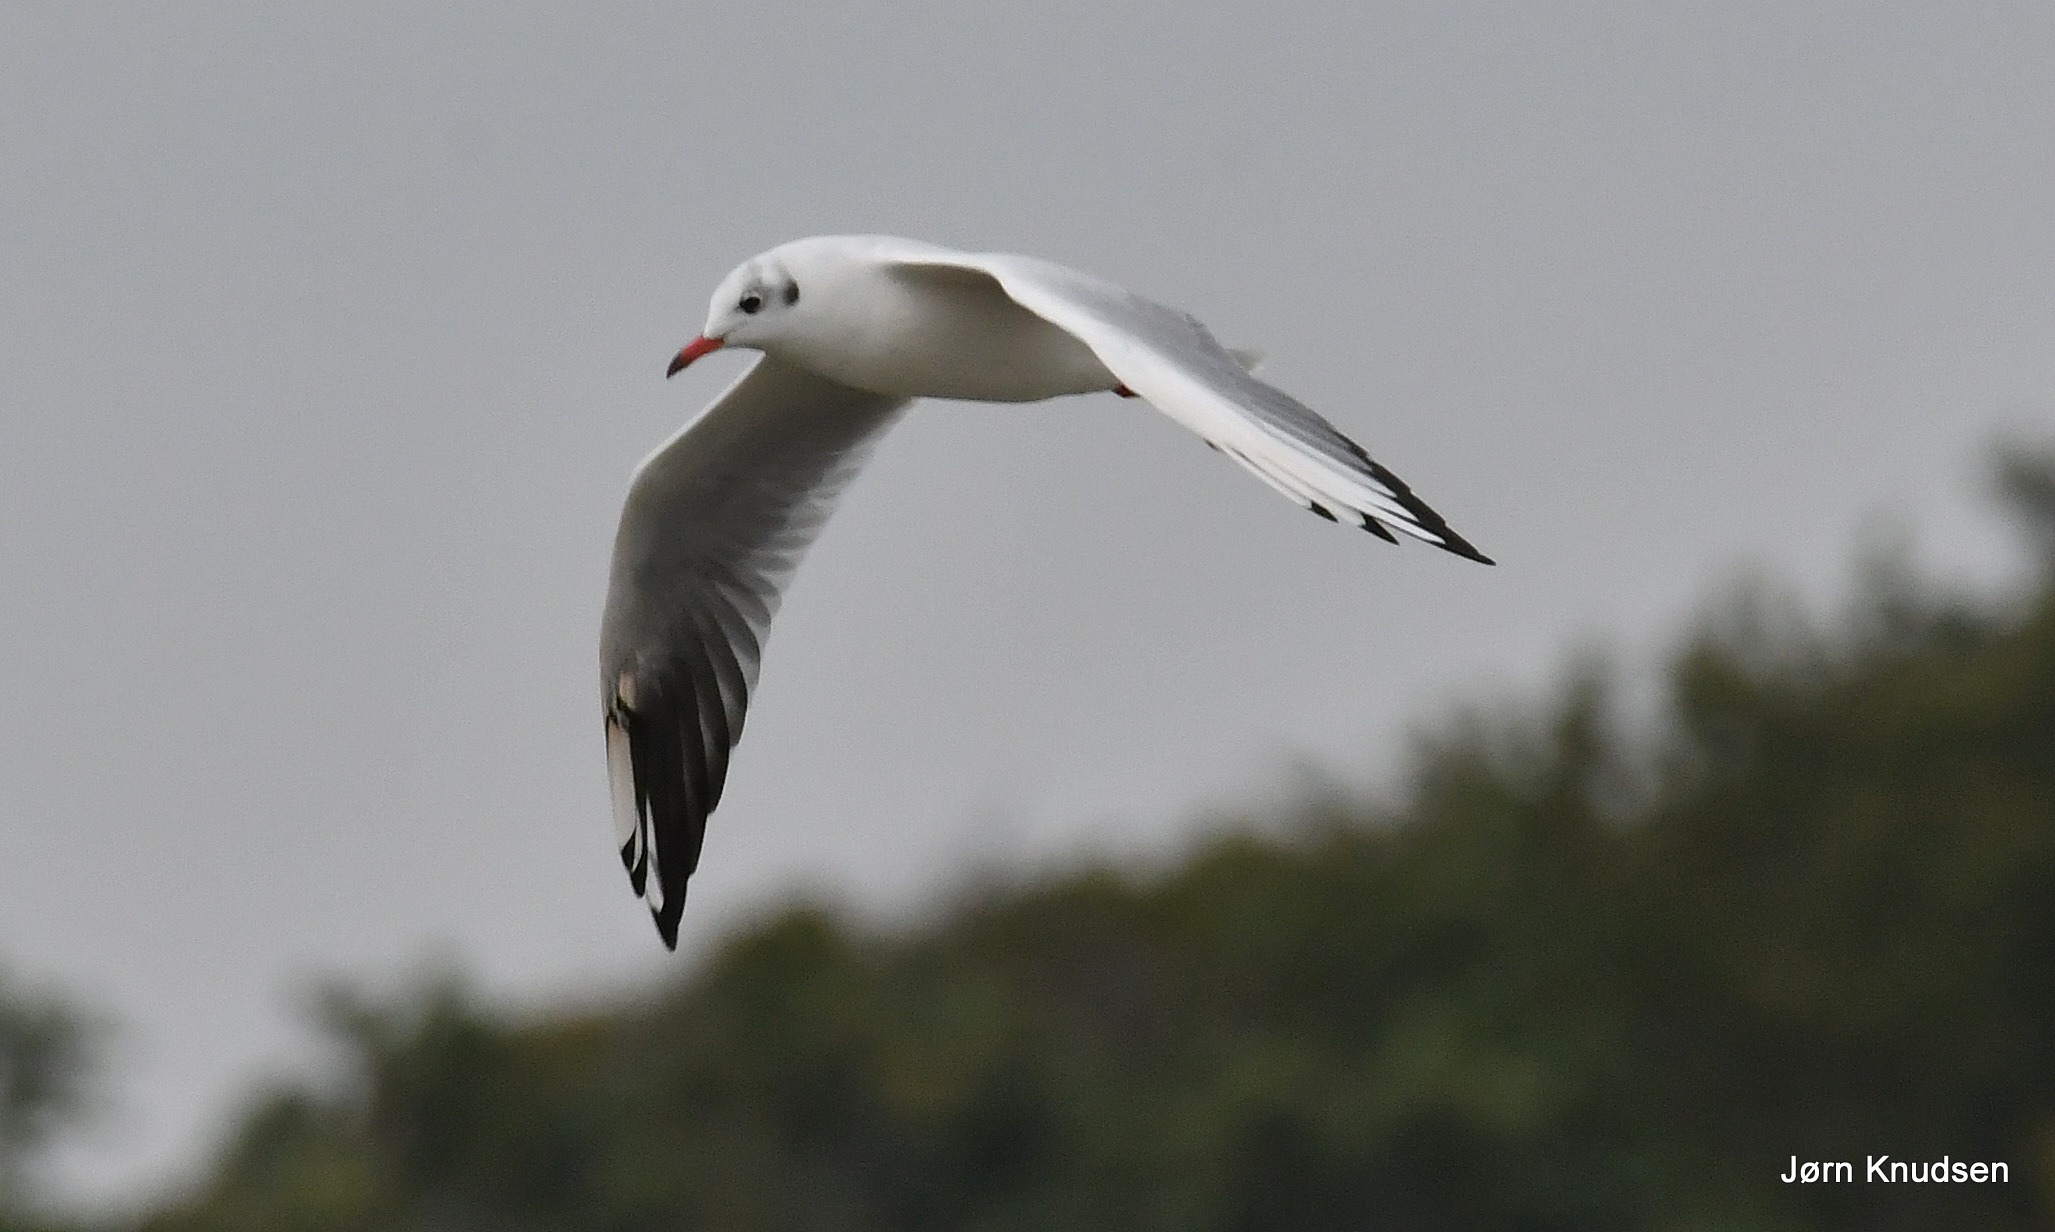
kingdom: Animalia
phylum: Chordata
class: Aves
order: Charadriiformes
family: Laridae
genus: Chroicocephalus
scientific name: Chroicocephalus ridibundus
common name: Hættemåge
